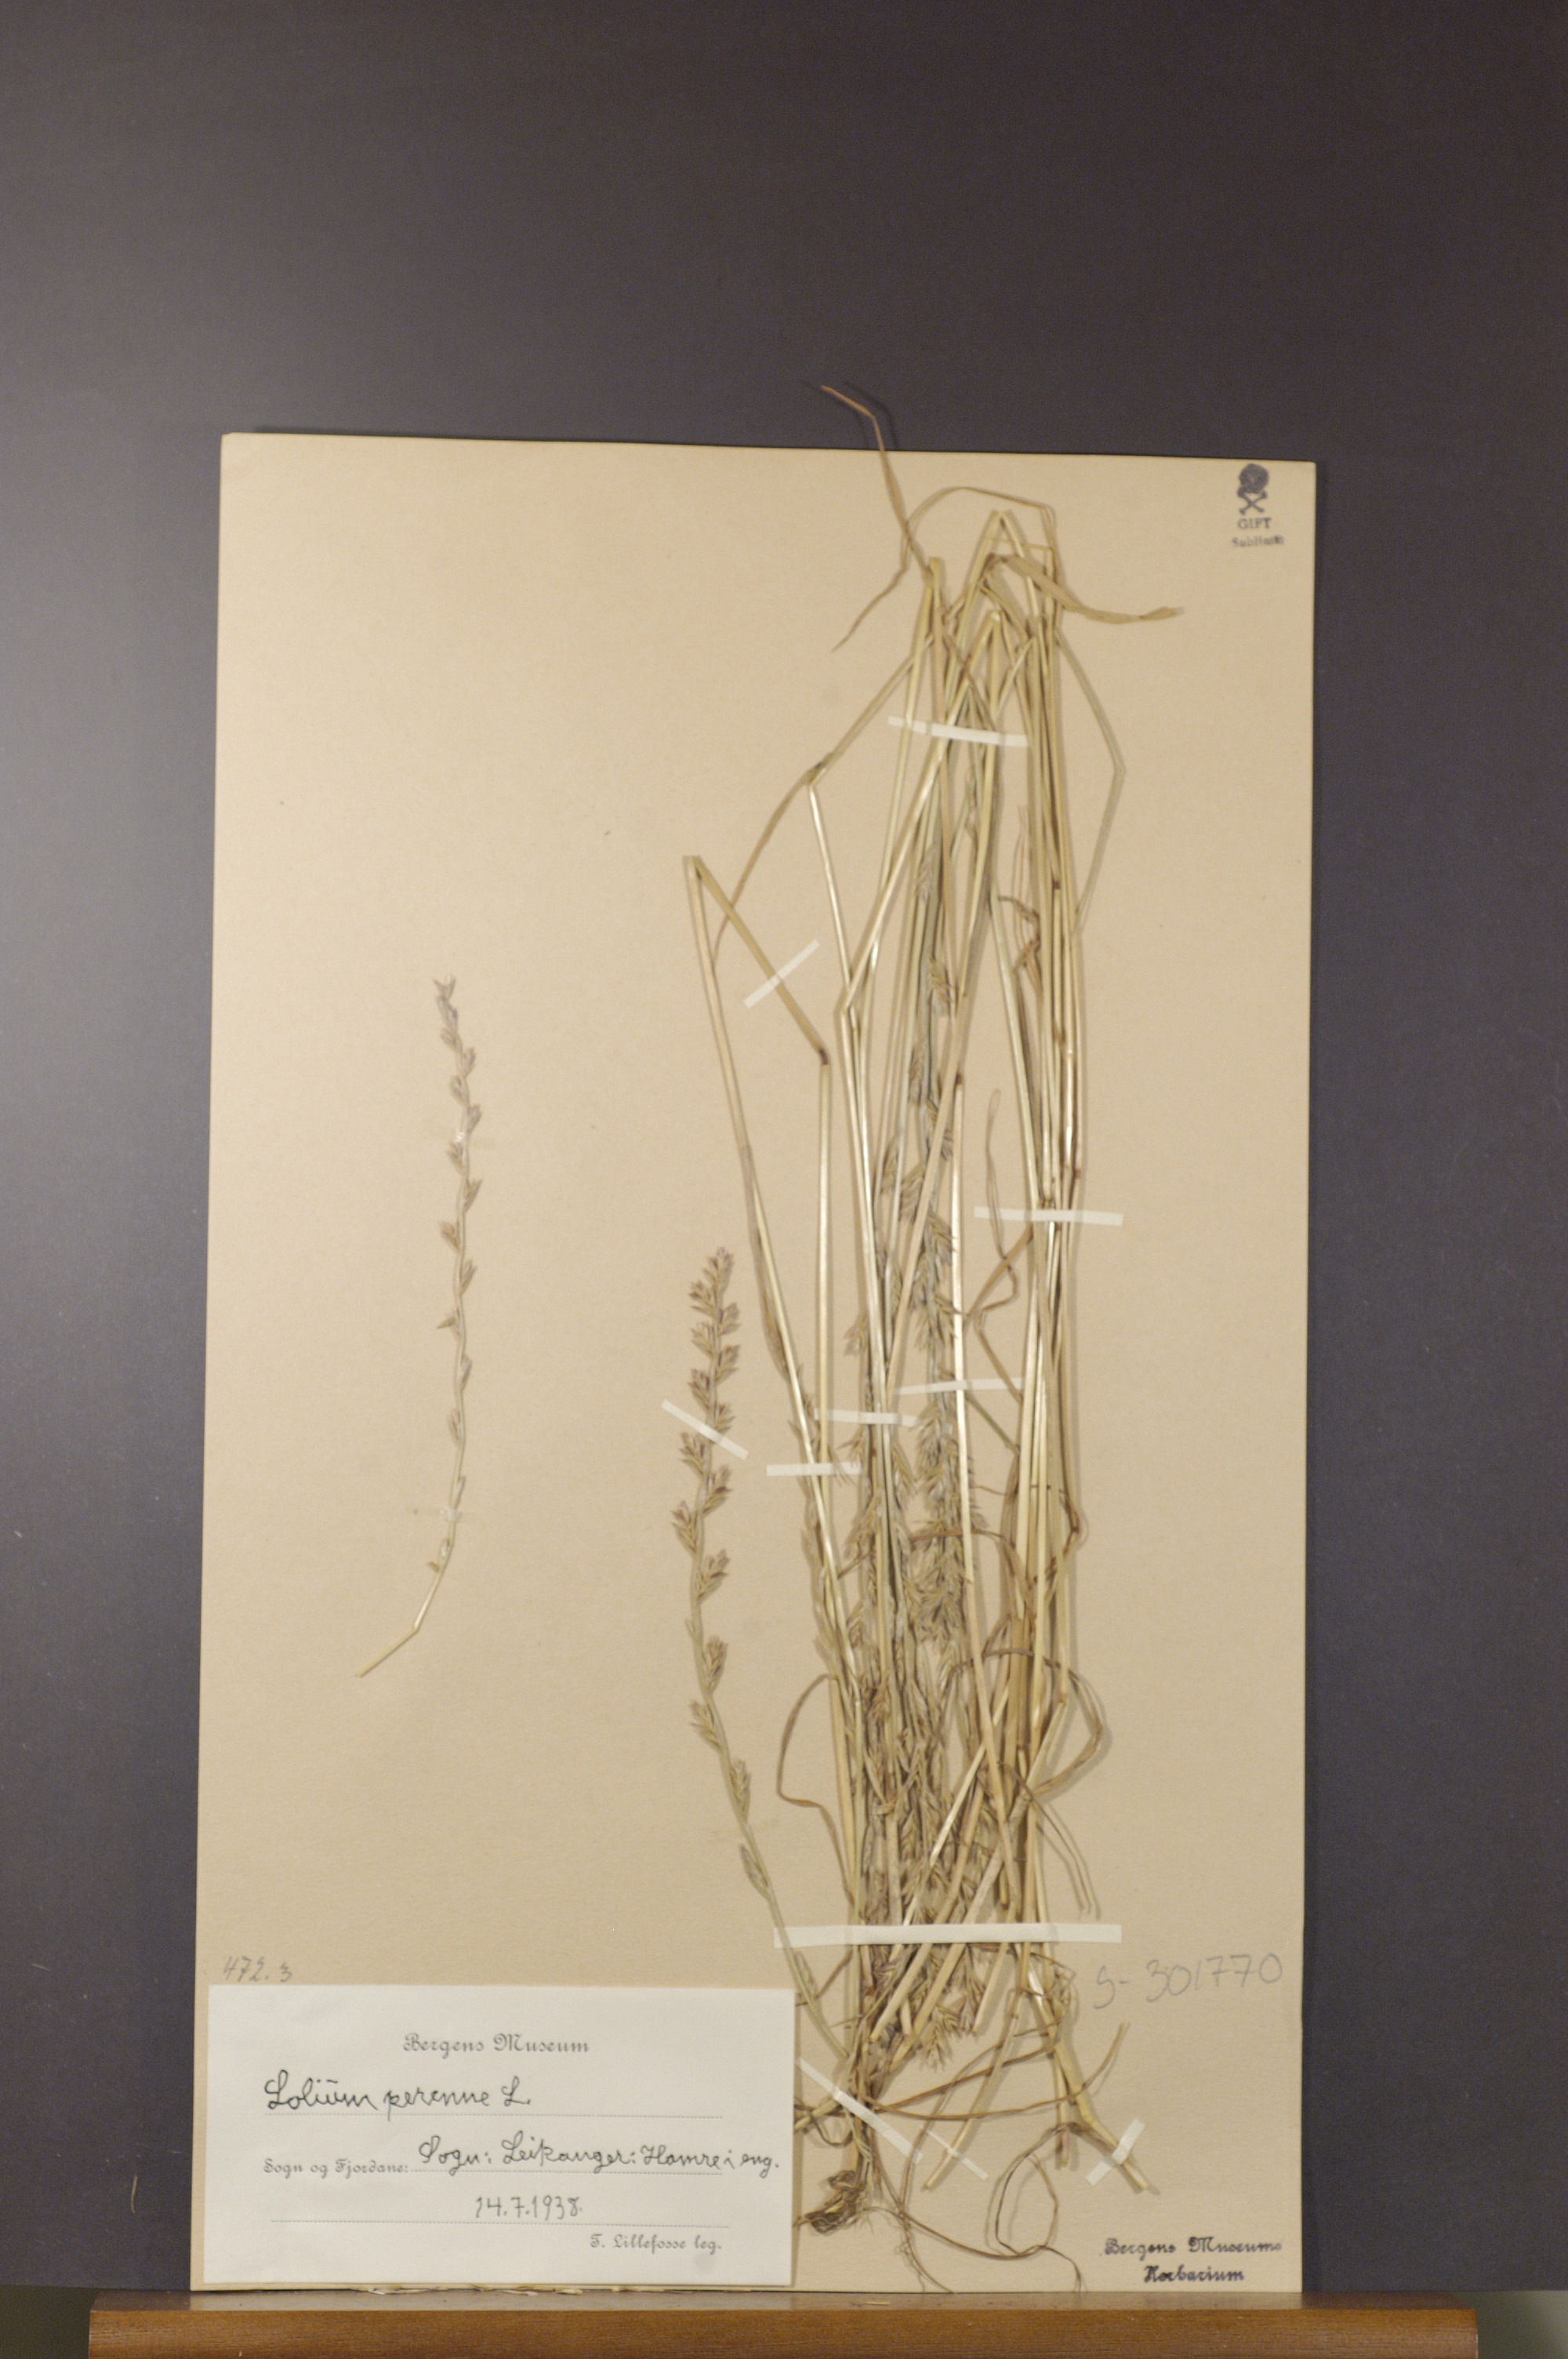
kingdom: Plantae
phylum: Tracheophyta
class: Liliopsida
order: Poales
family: Poaceae
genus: Lolium
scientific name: Lolium perenne
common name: Perennial ryegrass
